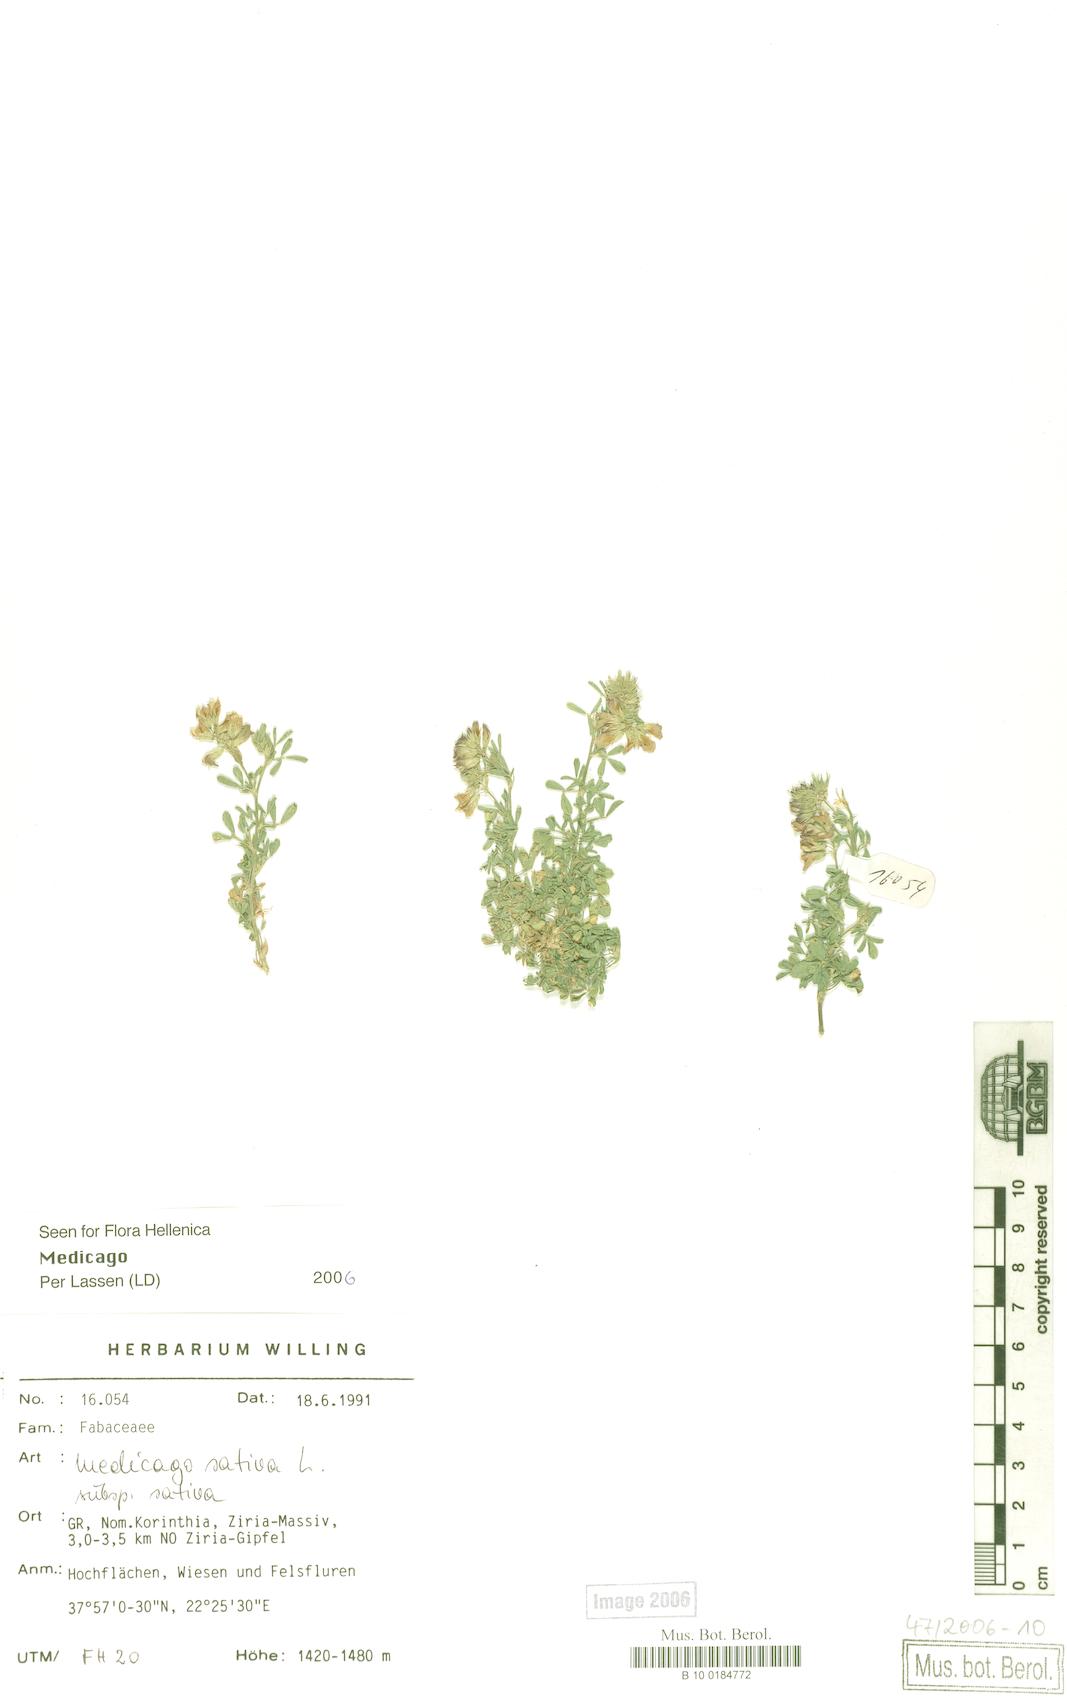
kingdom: Plantae
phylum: Tracheophyta
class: Magnoliopsida
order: Fabales
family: Fabaceae
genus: Medicago
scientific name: Medicago sativa
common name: Alfalfa
